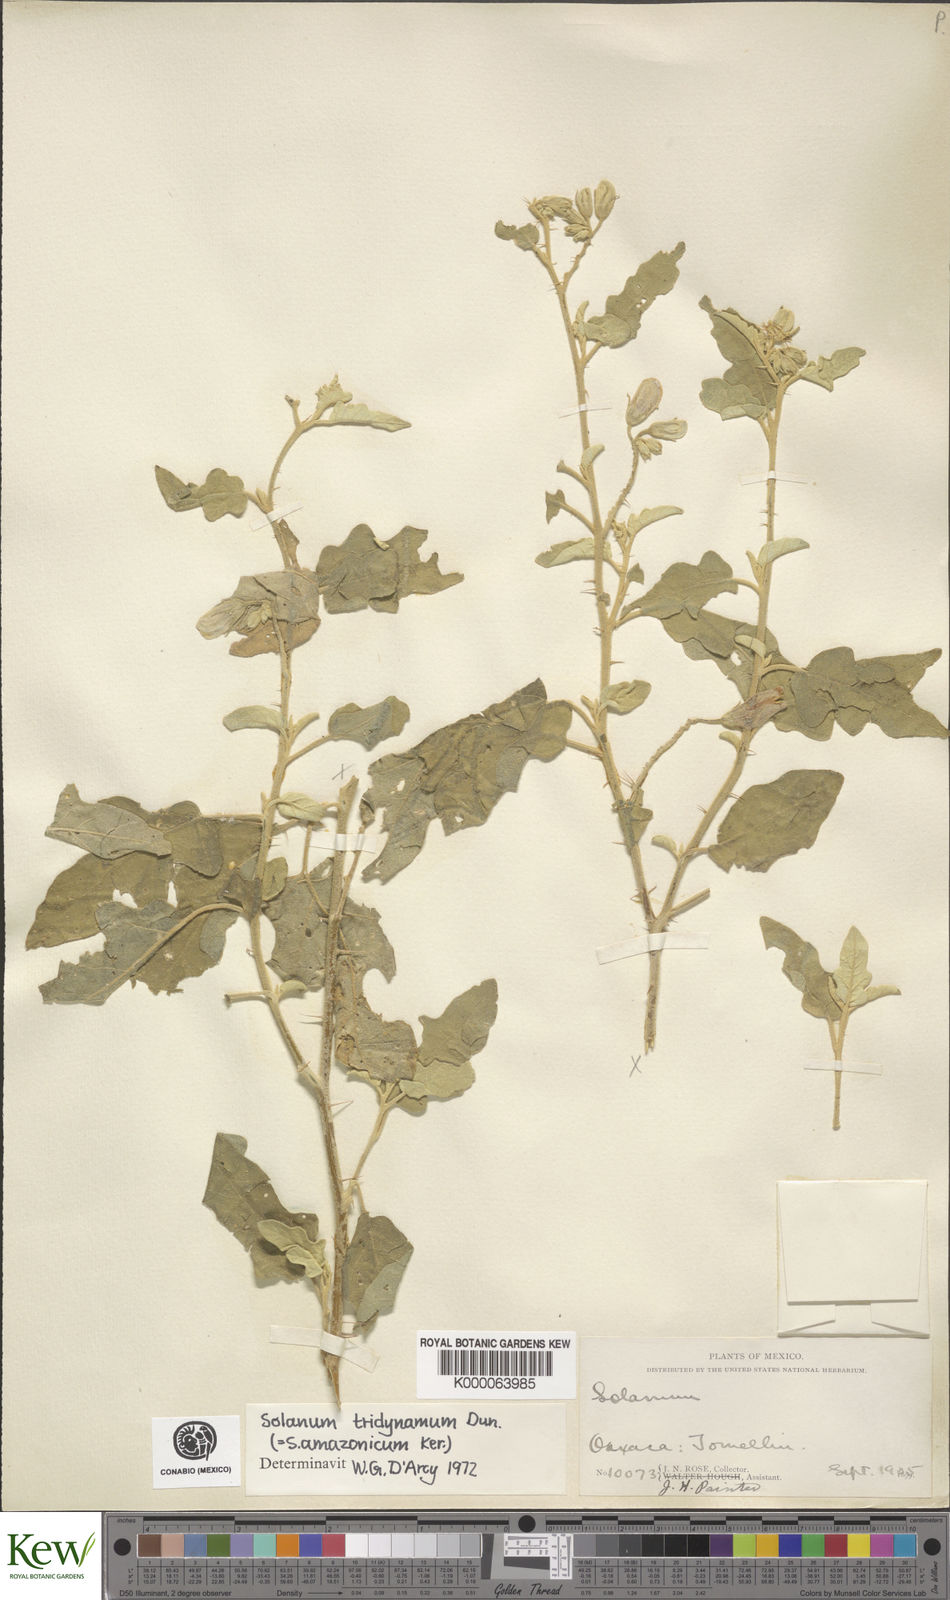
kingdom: Plantae
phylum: Tracheophyta
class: Magnoliopsida
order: Solanales
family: Solanaceae
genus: Solanum
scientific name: Solanum houstonii
